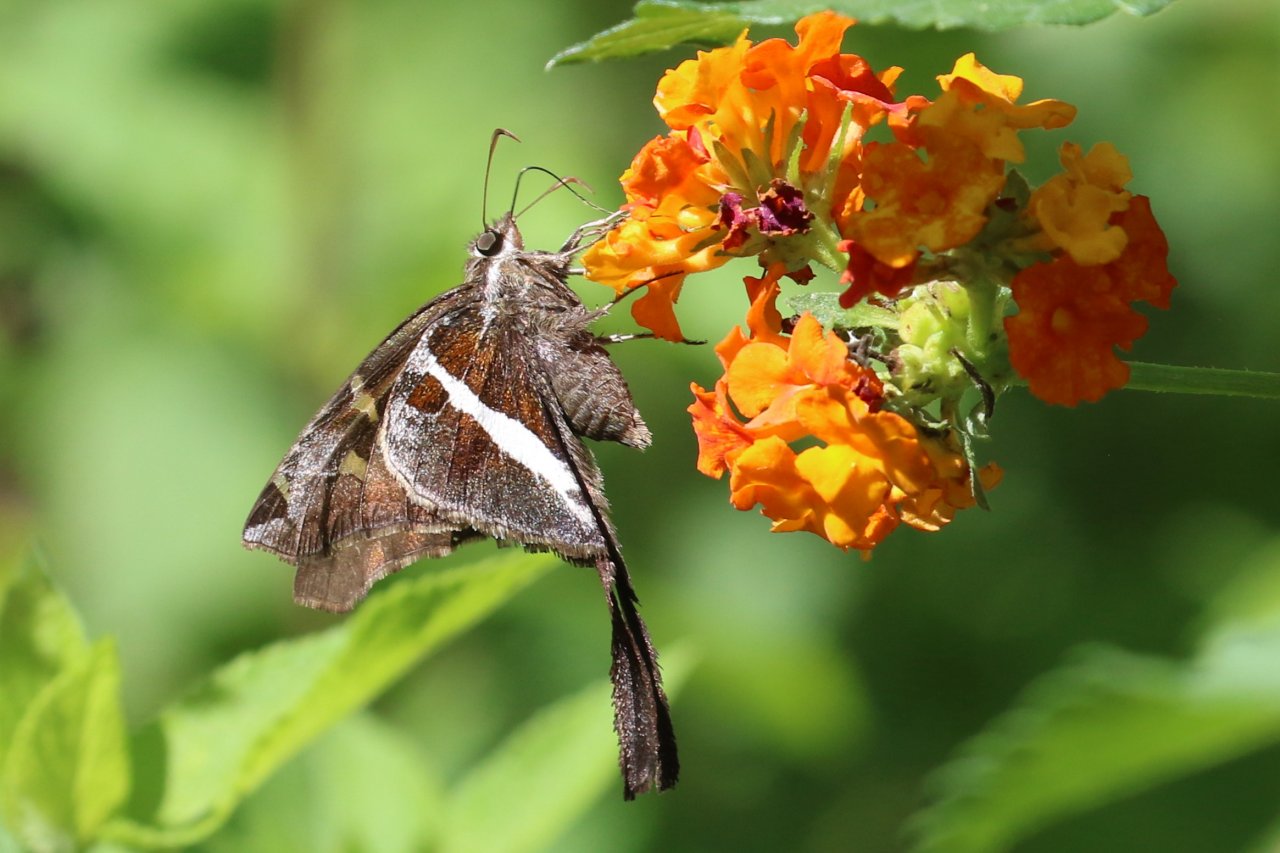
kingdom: Animalia
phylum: Arthropoda
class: Insecta
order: Lepidoptera
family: Hesperiidae
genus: Chioides
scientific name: Chioides catillus
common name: White-striped Longtail
